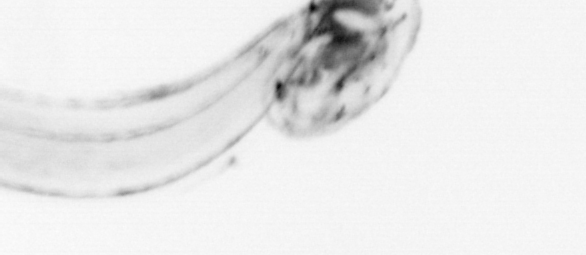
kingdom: Animalia
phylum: Chordata
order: Copelata
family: Fritillariidae
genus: Appendicularia
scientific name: Appendicularia
